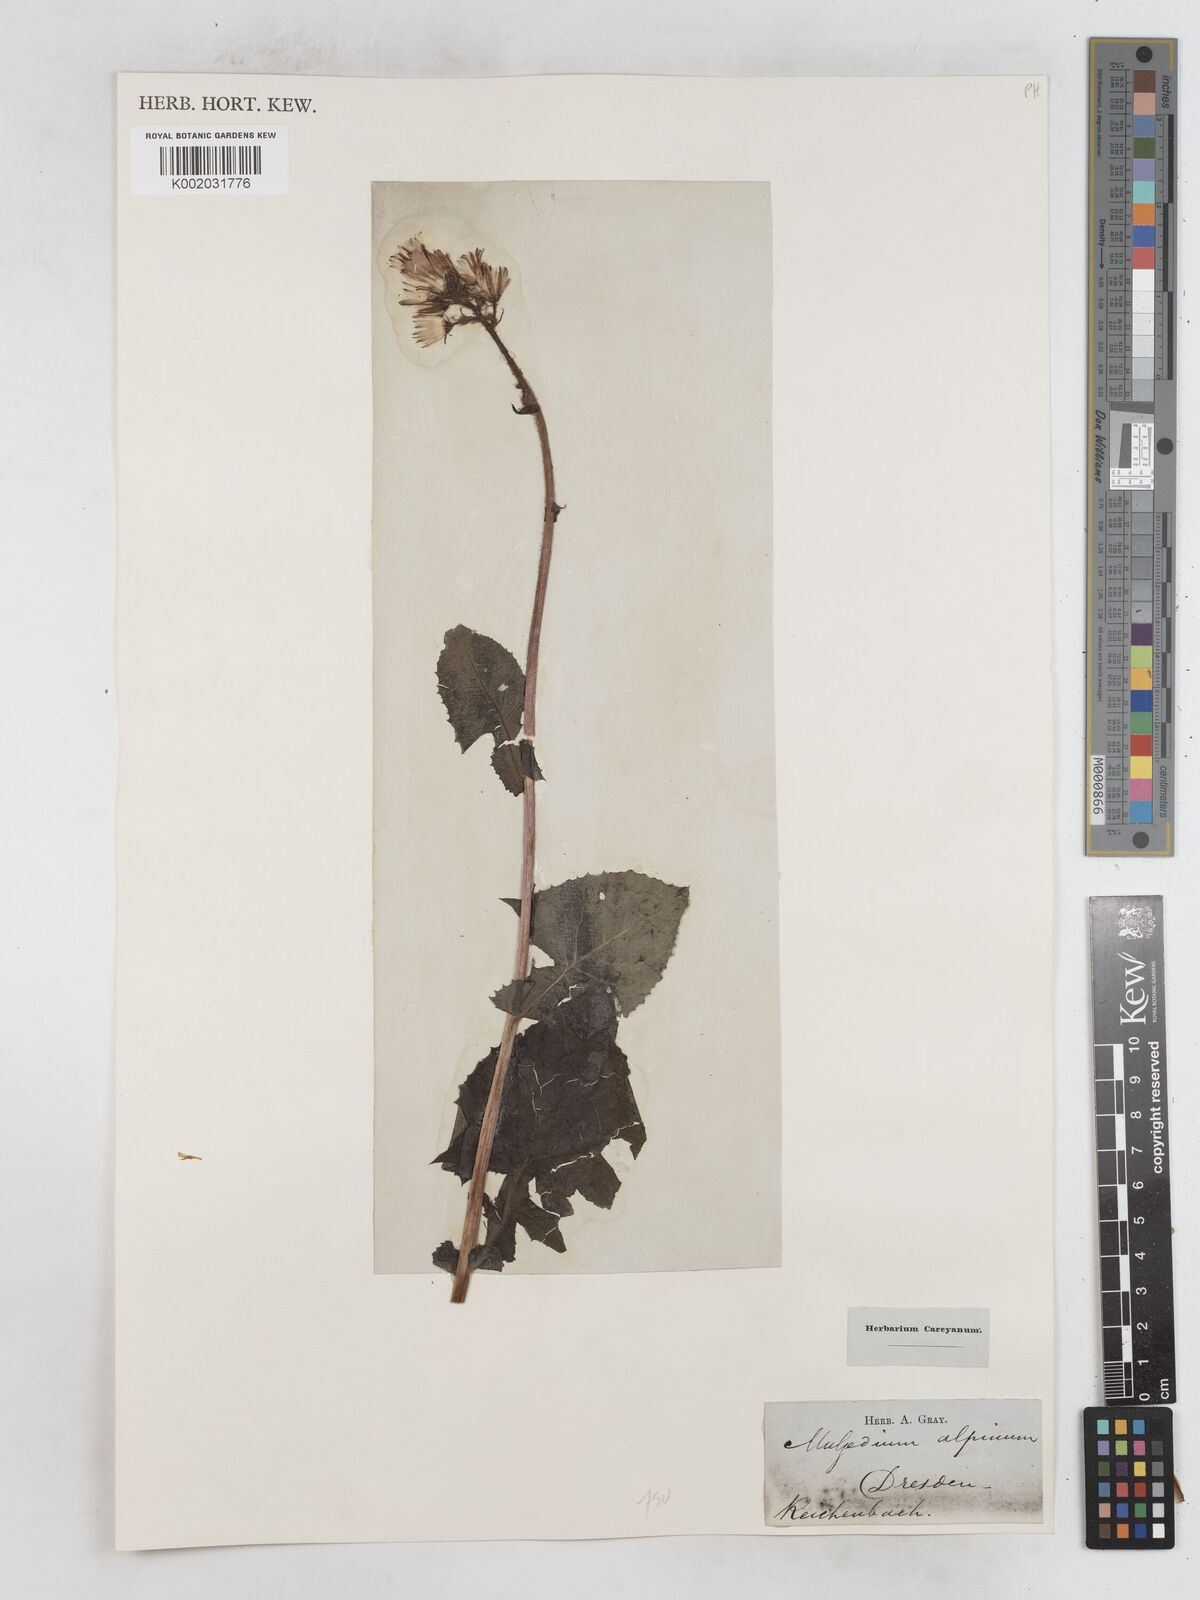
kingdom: Plantae
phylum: Tracheophyta
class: Magnoliopsida
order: Asterales
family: Asteraceae
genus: Cicerbita
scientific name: Cicerbita alpina
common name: Alpine blue-sow-thistle
